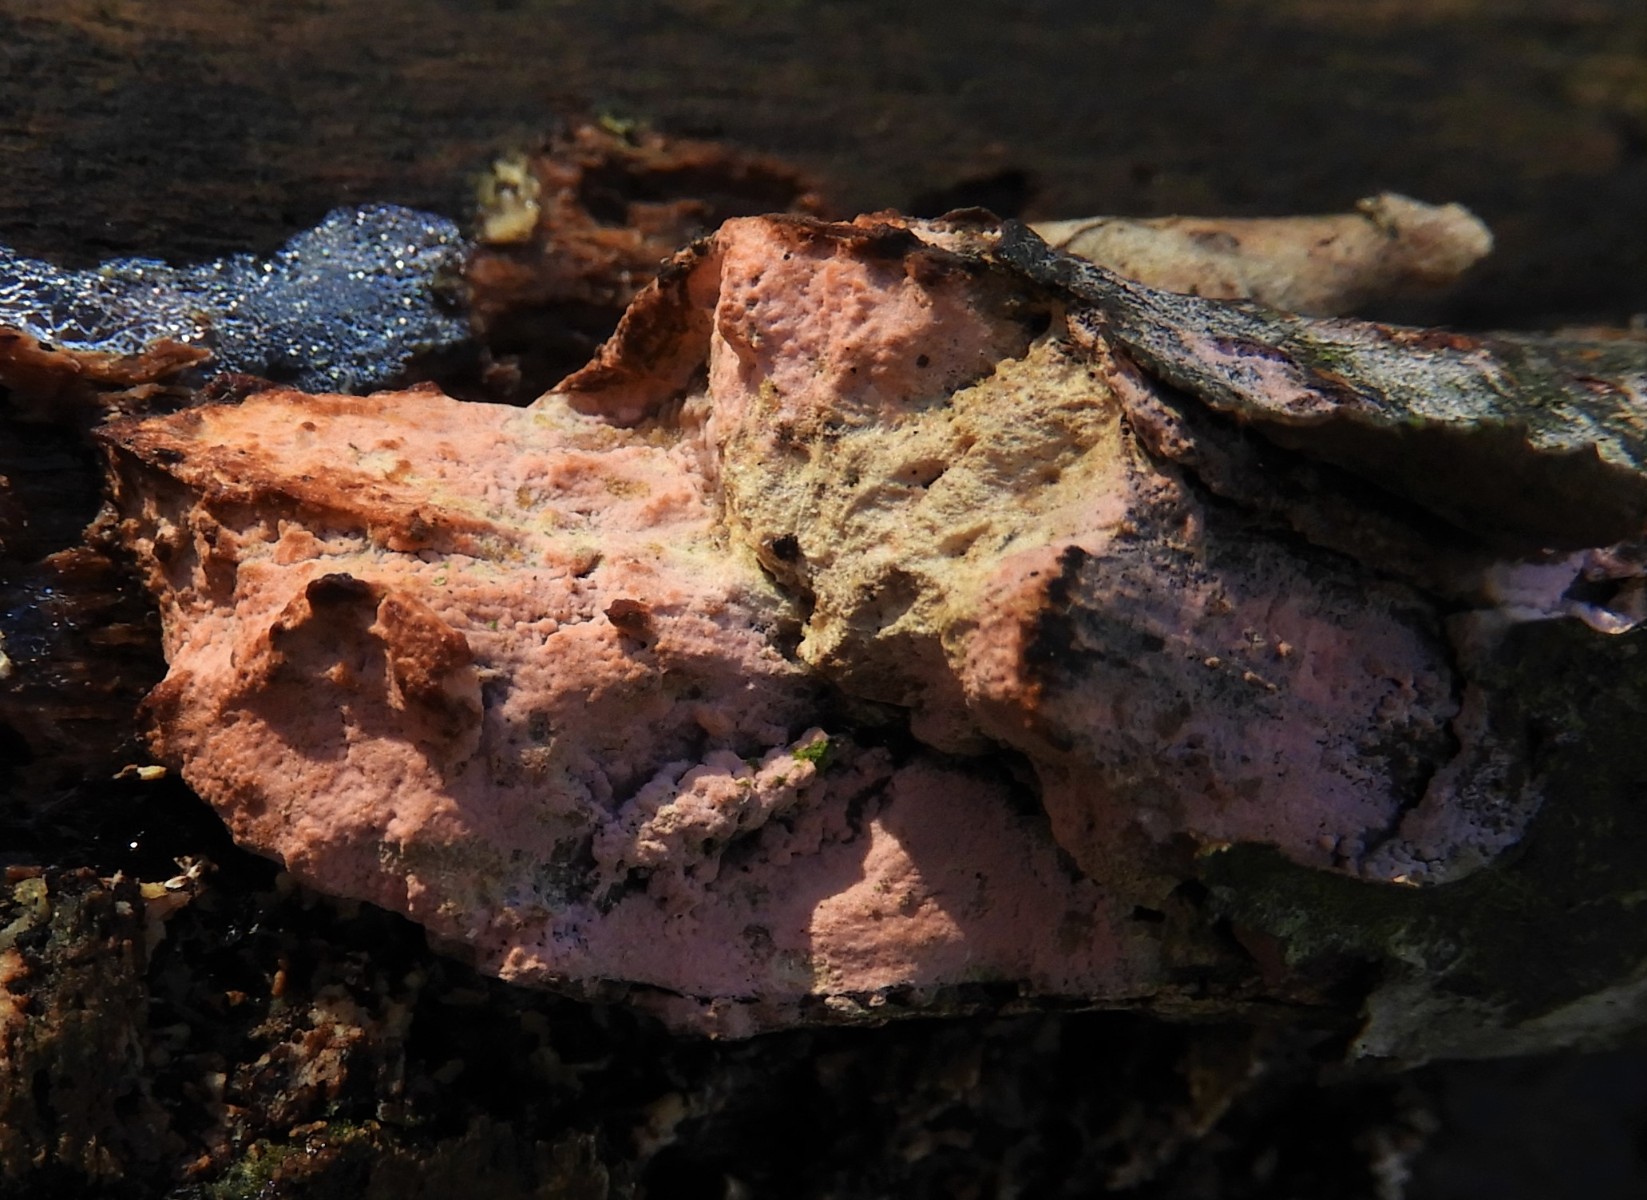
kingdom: Fungi
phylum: Basidiomycota
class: Agaricomycetes
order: Polyporales
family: Irpicaceae
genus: Ceriporia
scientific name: Ceriporia
